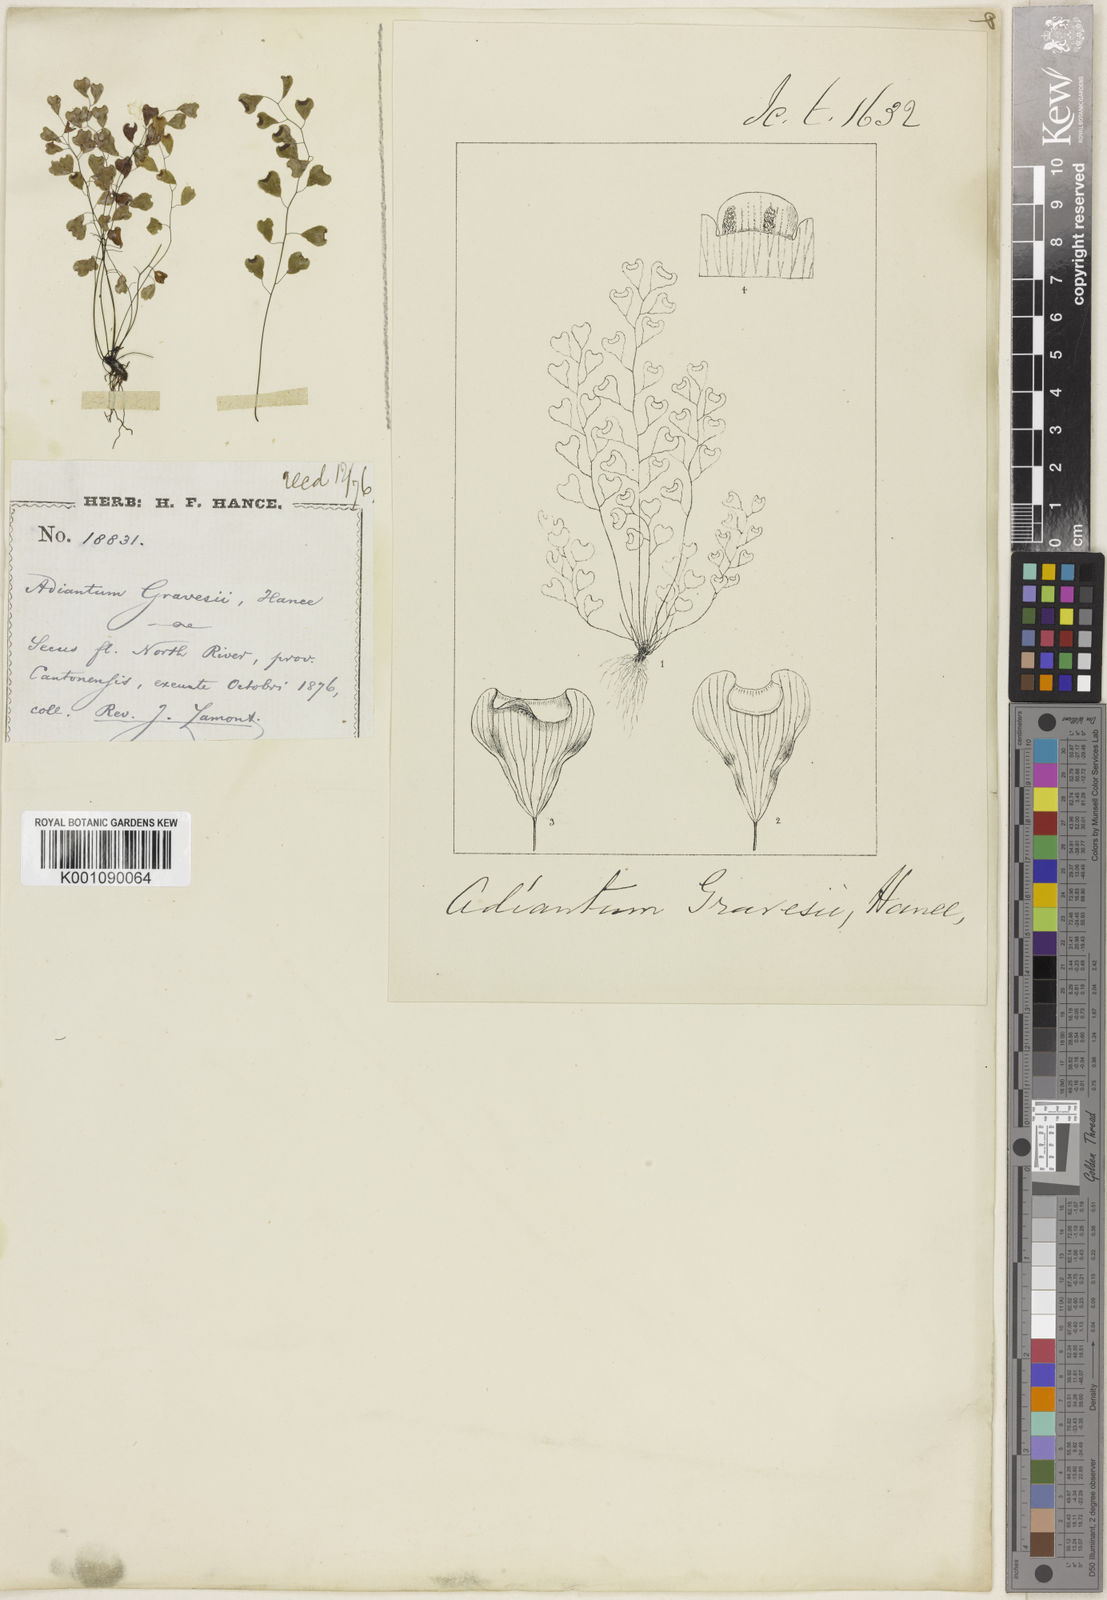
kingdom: Plantae
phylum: Tracheophyta
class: Polypodiopsida
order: Polypodiales
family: Pteridaceae
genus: Adiantum
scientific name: Adiantum gravesii
